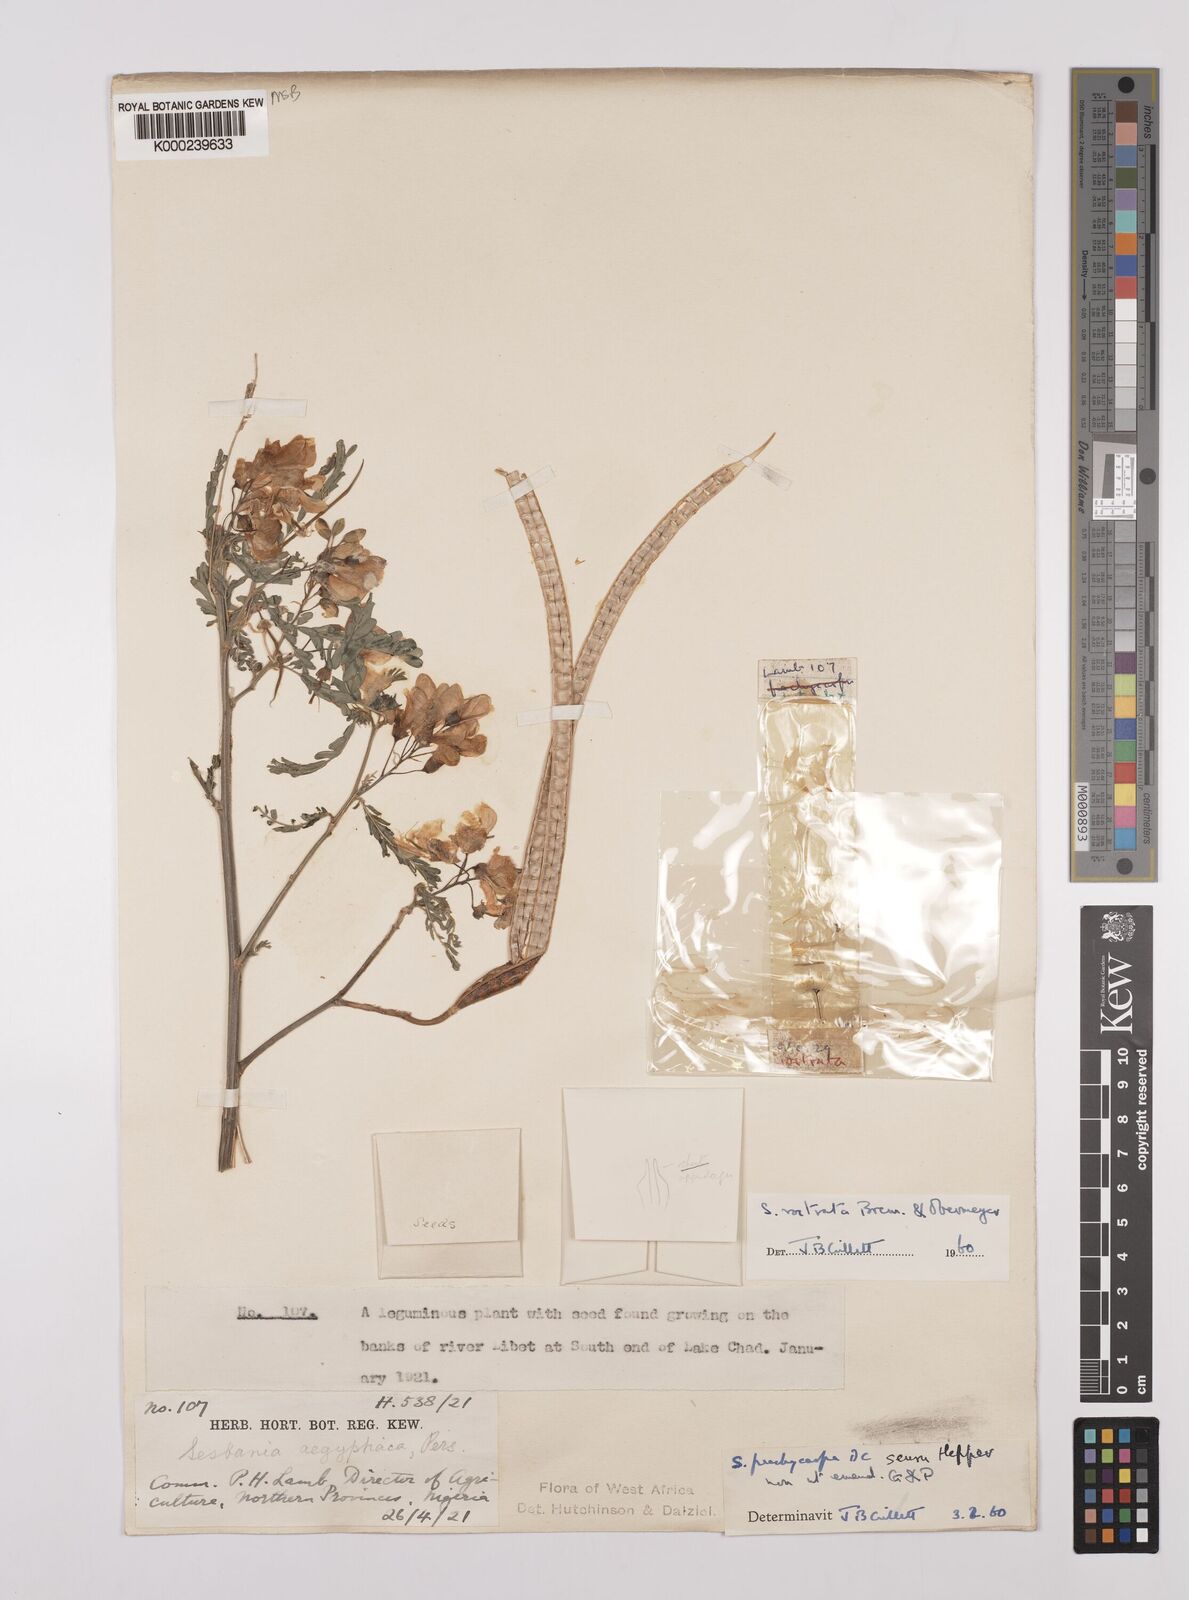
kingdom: Plantae
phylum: Tracheophyta
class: Magnoliopsida
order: Fabales
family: Fabaceae
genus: Sesbania
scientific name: Sesbania rostrata
